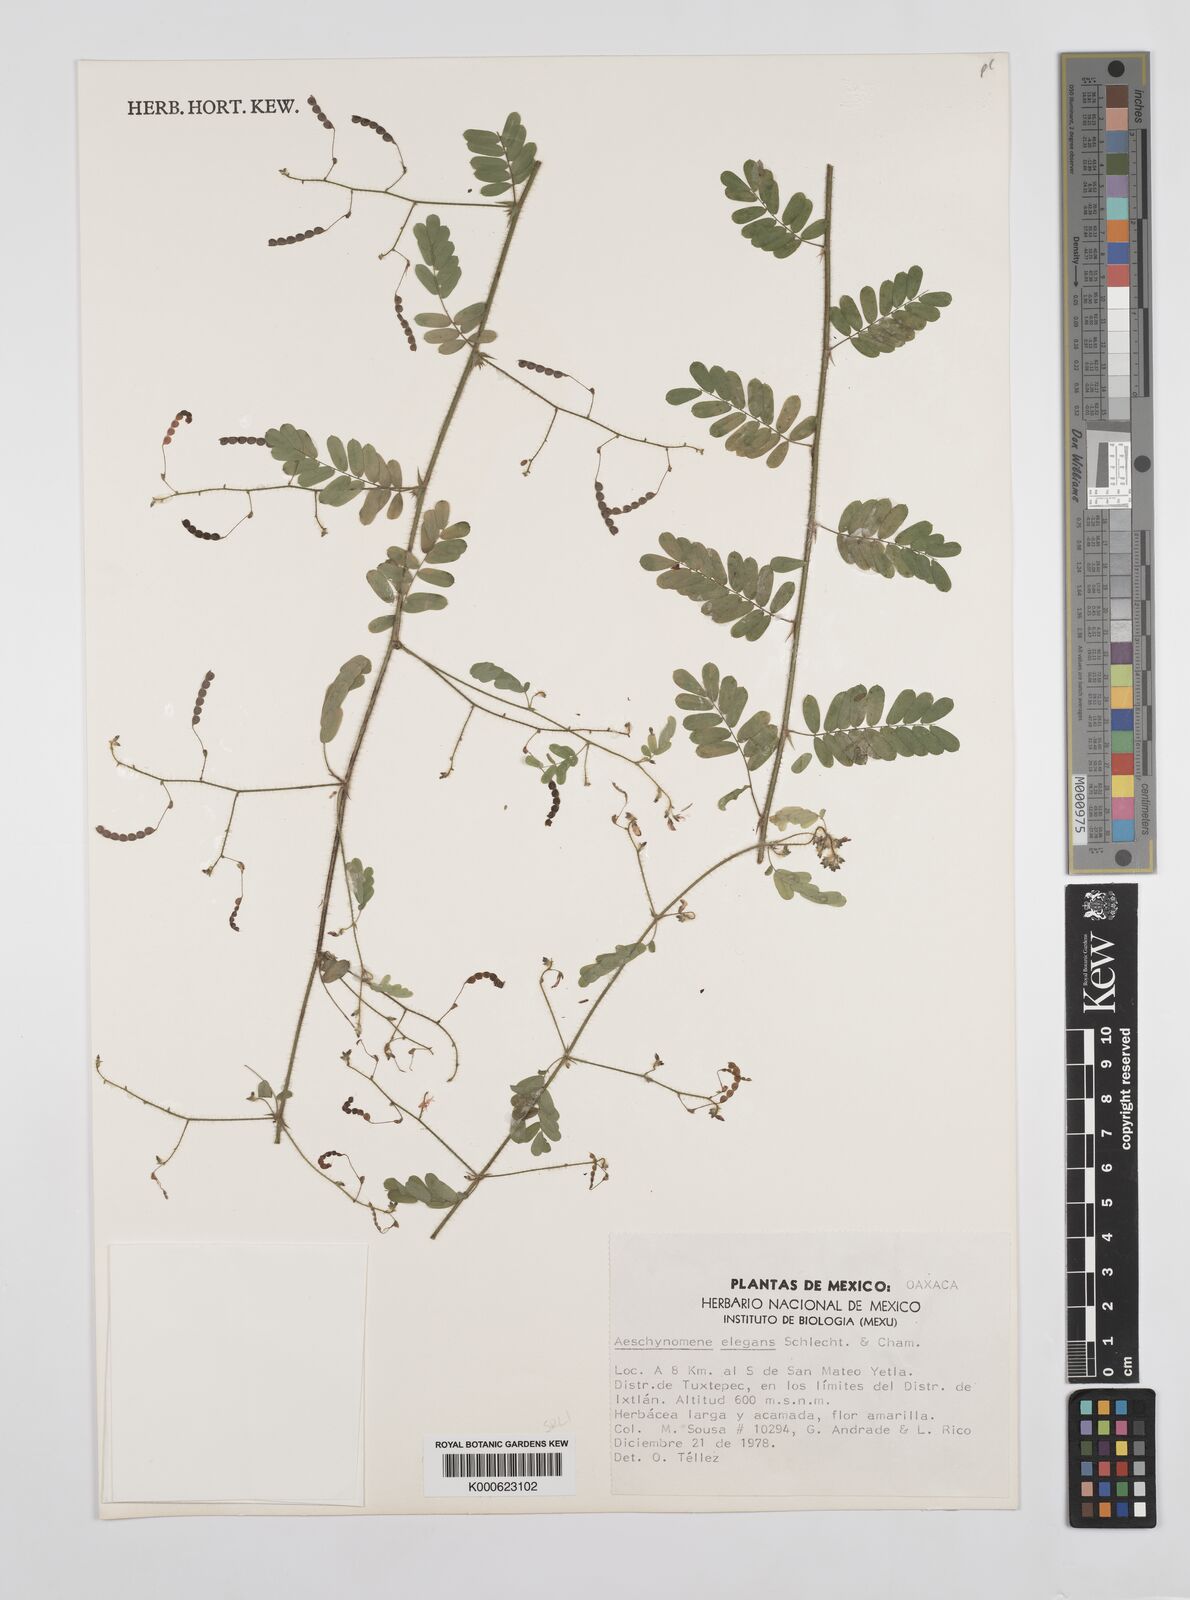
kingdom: Plantae
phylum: Tracheophyta
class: Magnoliopsida
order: Fabales
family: Fabaceae
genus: Ctenodon
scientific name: Ctenodon elegans
